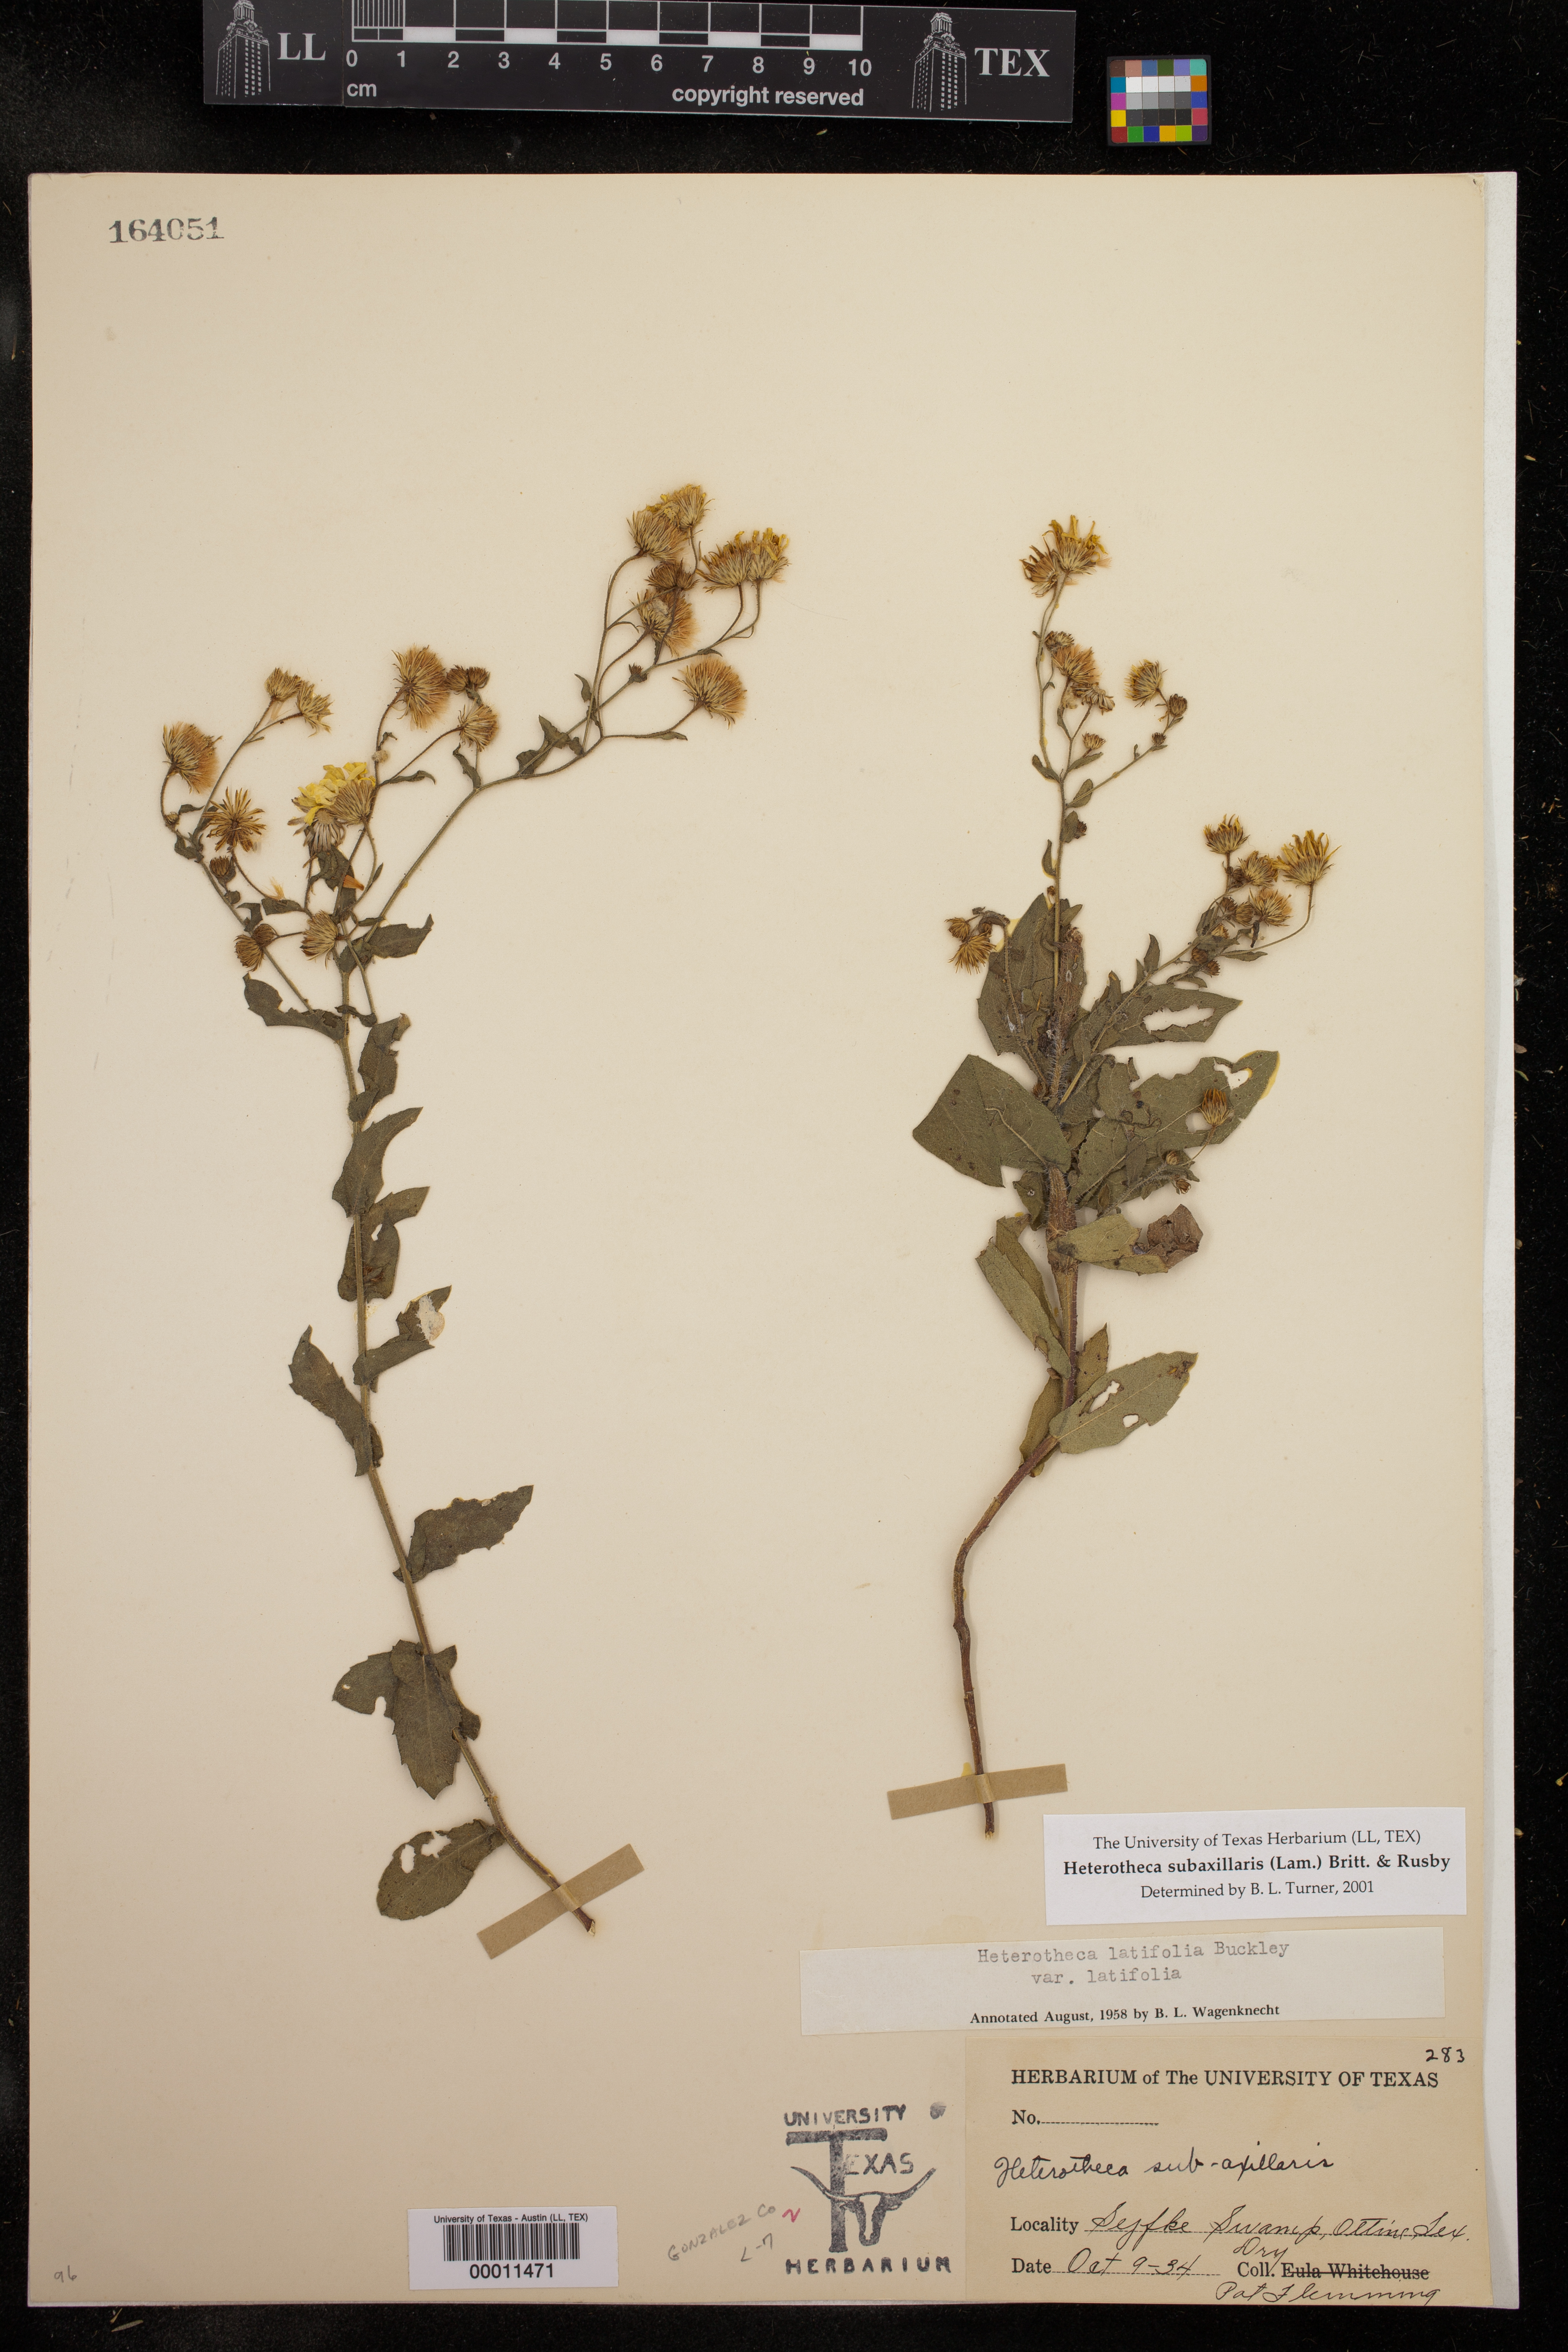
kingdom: Plantae
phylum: Tracheophyta
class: Magnoliopsida
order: Asterales
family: Asteraceae
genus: Heterotheca
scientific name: Heterotheca subaxillaris
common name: Camphorweed
